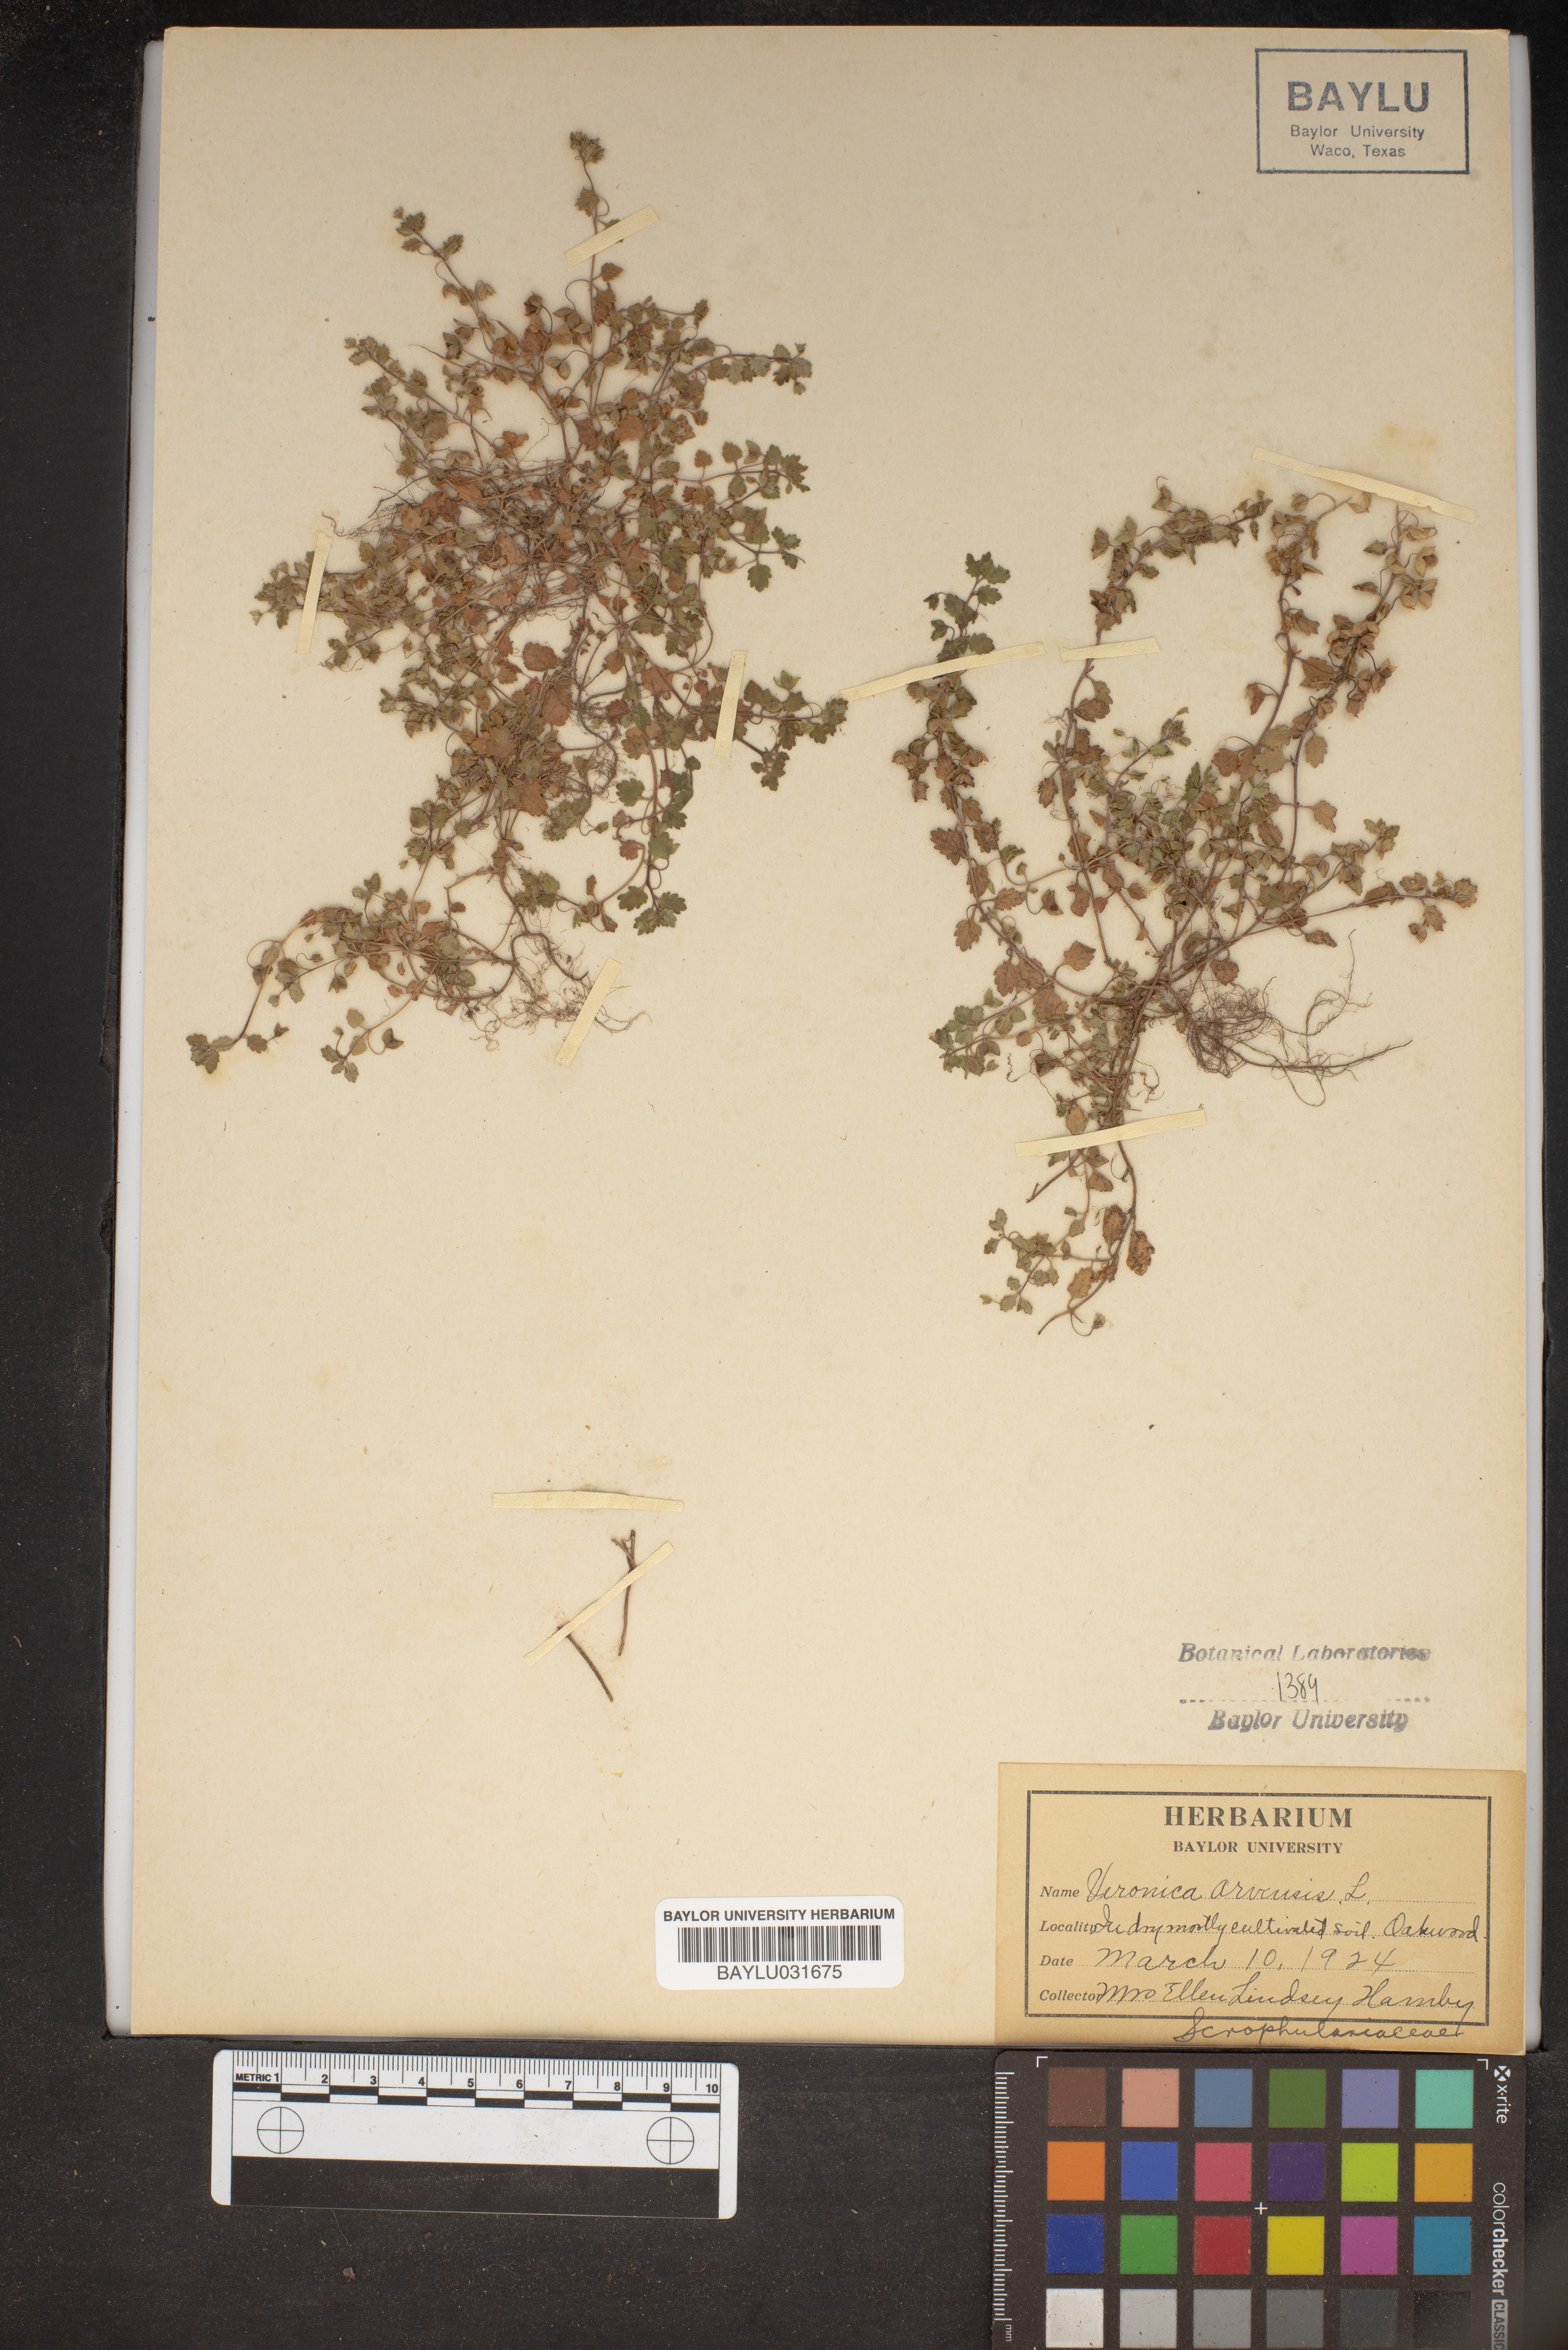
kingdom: Plantae
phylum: Tracheophyta
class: Magnoliopsida
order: Lamiales
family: Plantaginaceae
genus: Veronica
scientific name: Veronica arvensis
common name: Corn speedwell
